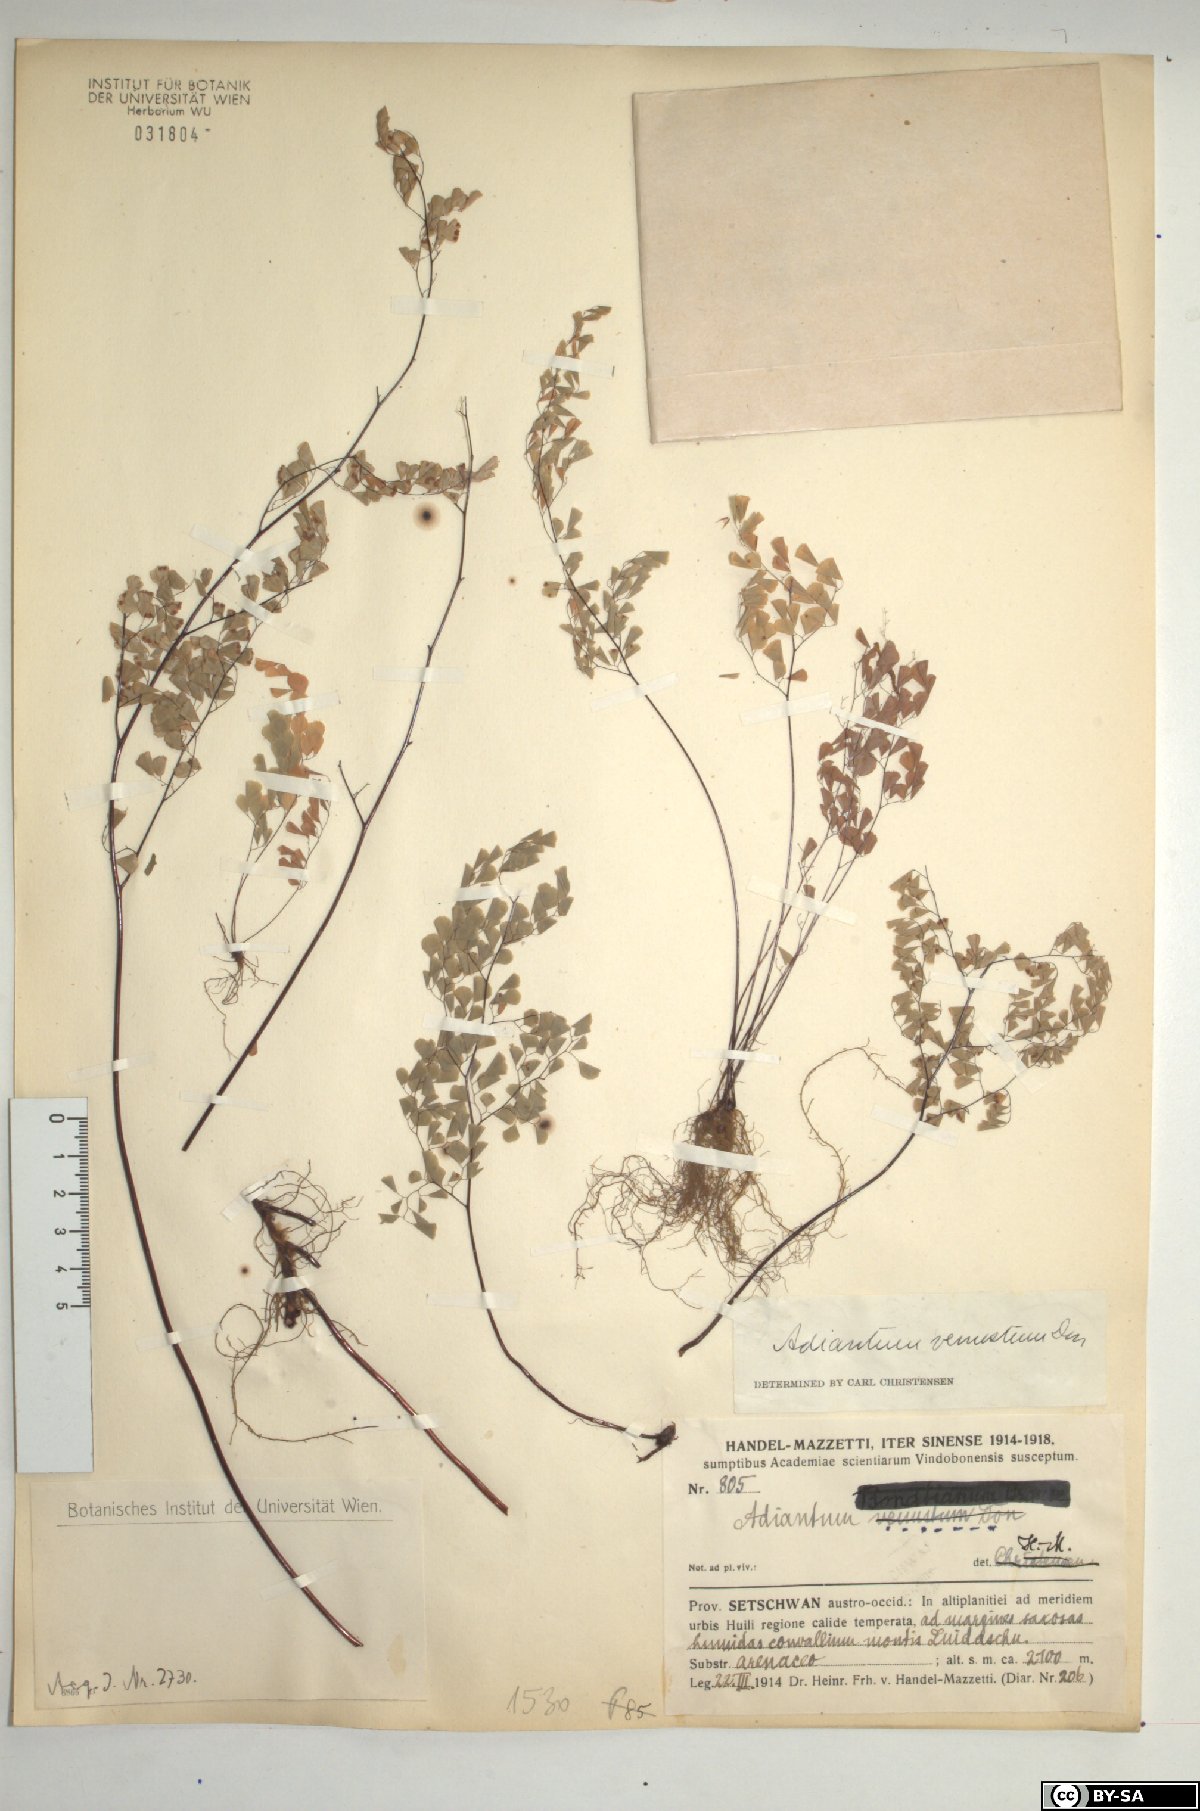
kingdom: Plantae
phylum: Tracheophyta
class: Polypodiopsida
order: Polypodiales
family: Pteridaceae
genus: Adiantum
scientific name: Adiantum venustum
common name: Evergreen maidenhair
